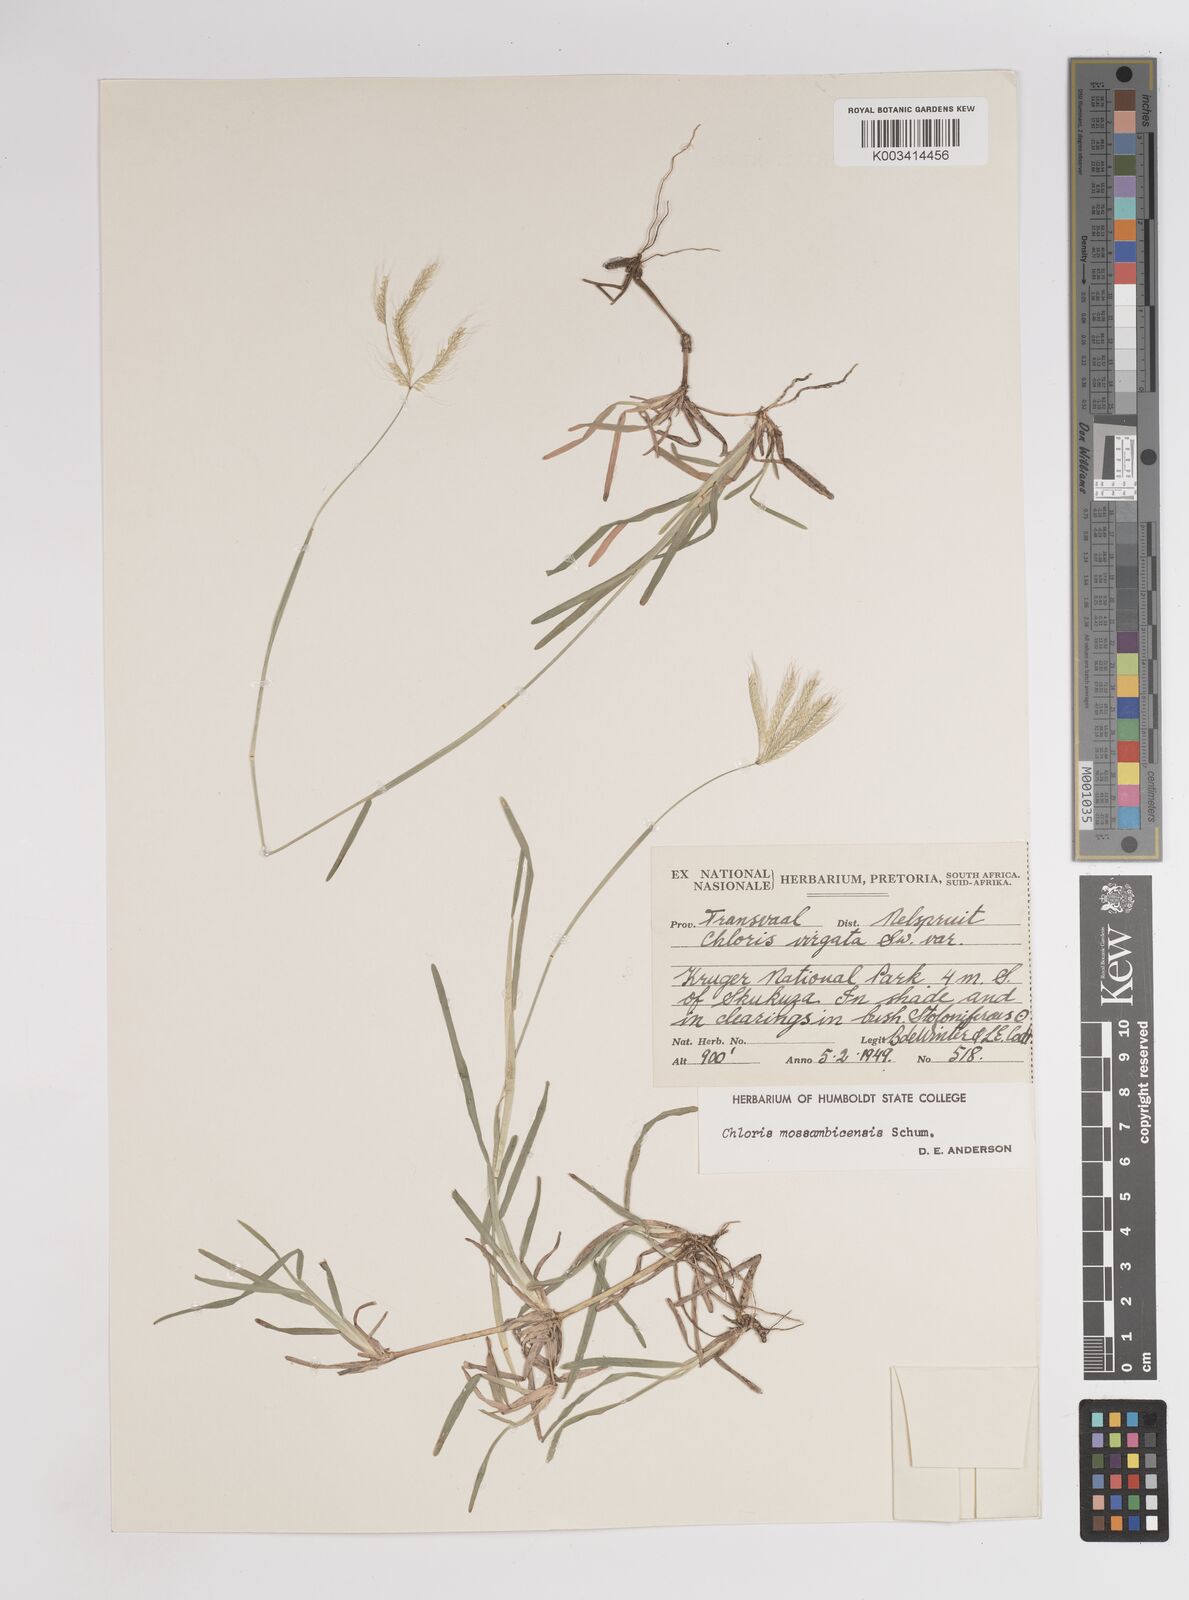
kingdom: Plantae
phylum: Tracheophyta
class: Liliopsida
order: Poales
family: Poaceae
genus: Chloris
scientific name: Chloris mossambicensis
